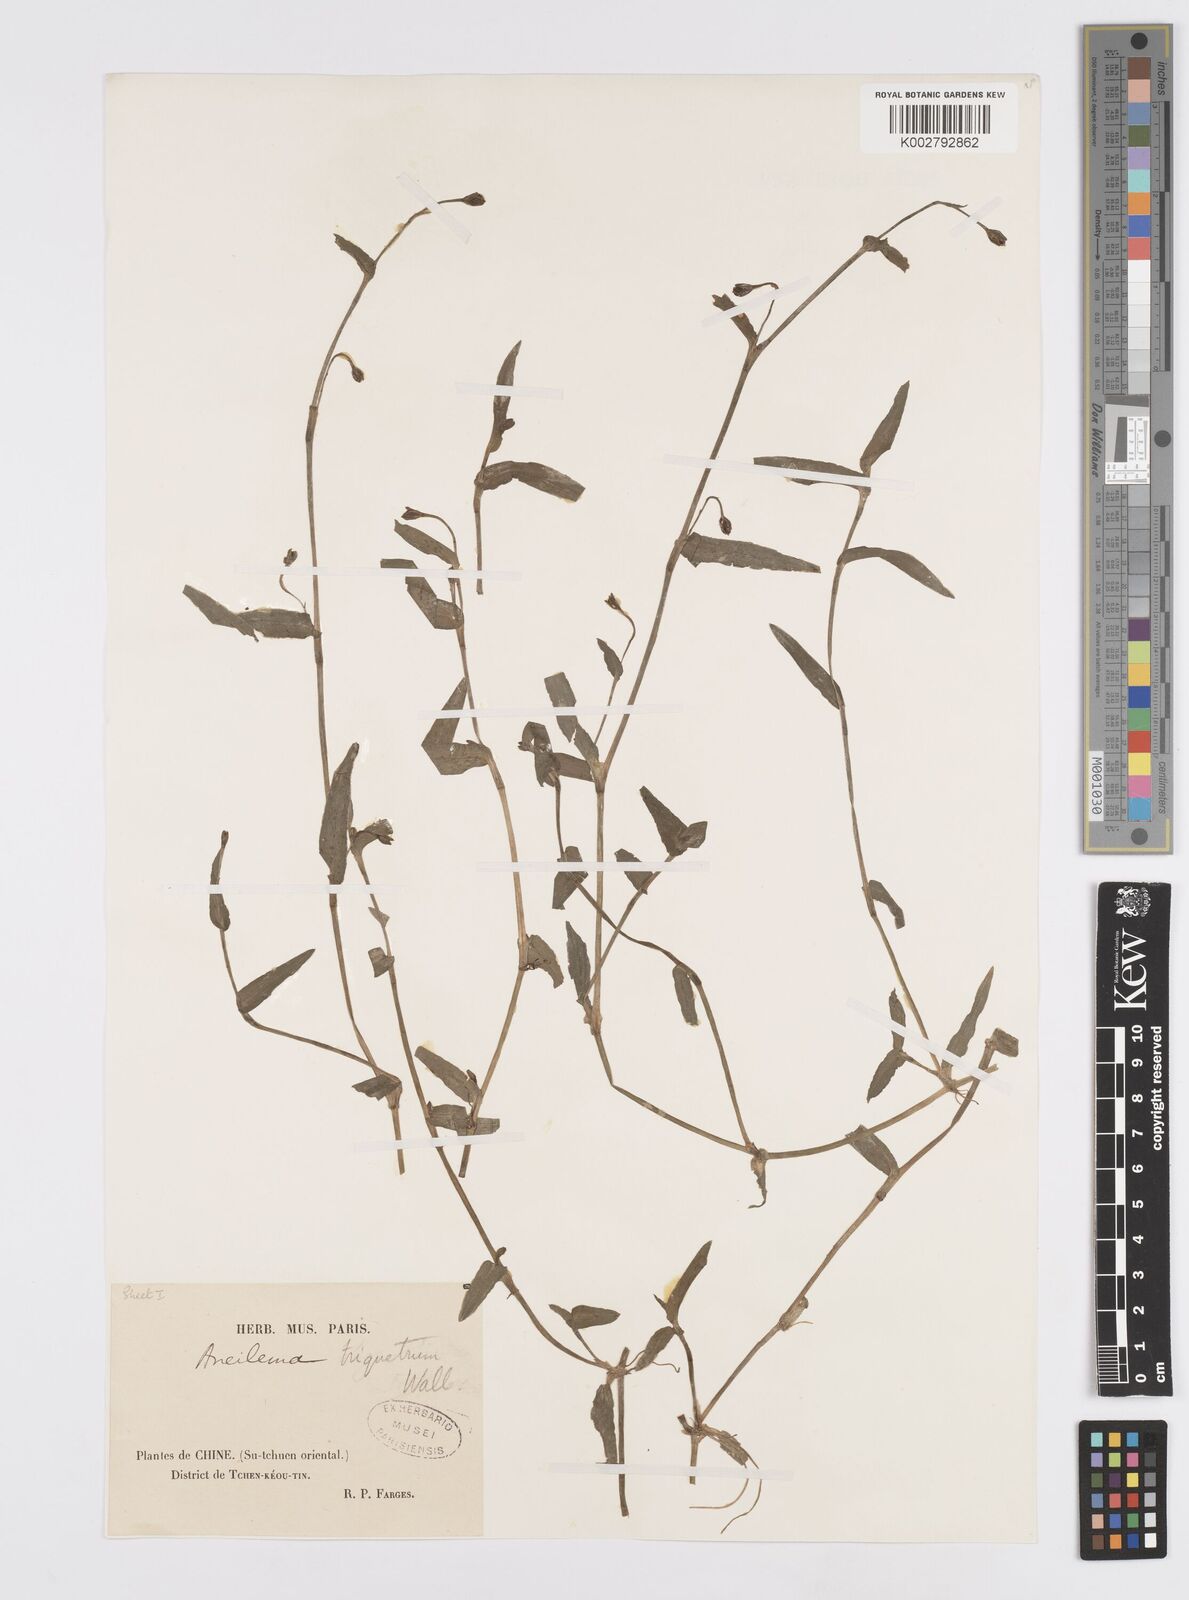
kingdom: Plantae
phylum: Tracheophyta
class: Liliopsida
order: Commelinales
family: Commelinaceae
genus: Murdannia
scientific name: Murdannia triquetra
